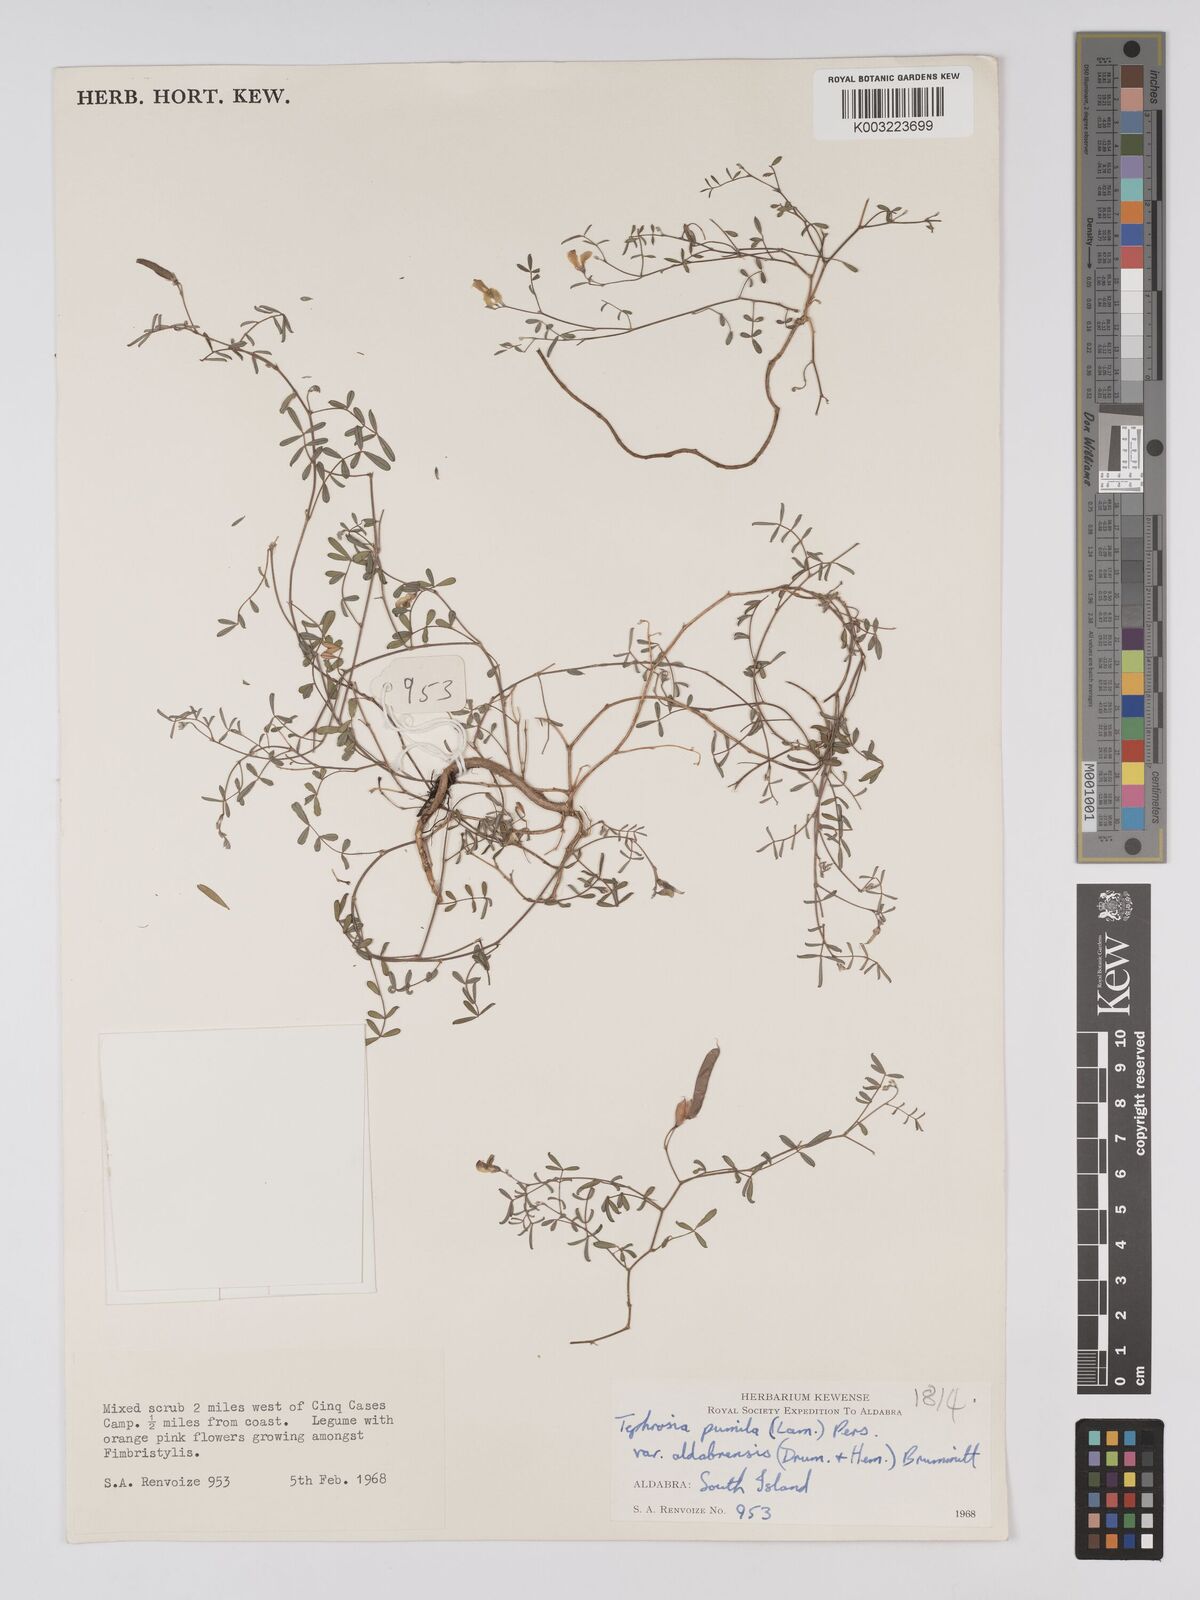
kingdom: Plantae
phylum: Tracheophyta
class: Magnoliopsida
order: Fabales
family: Fabaceae
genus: Tephrosia
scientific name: Tephrosia pumila
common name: Indigo sauvage
